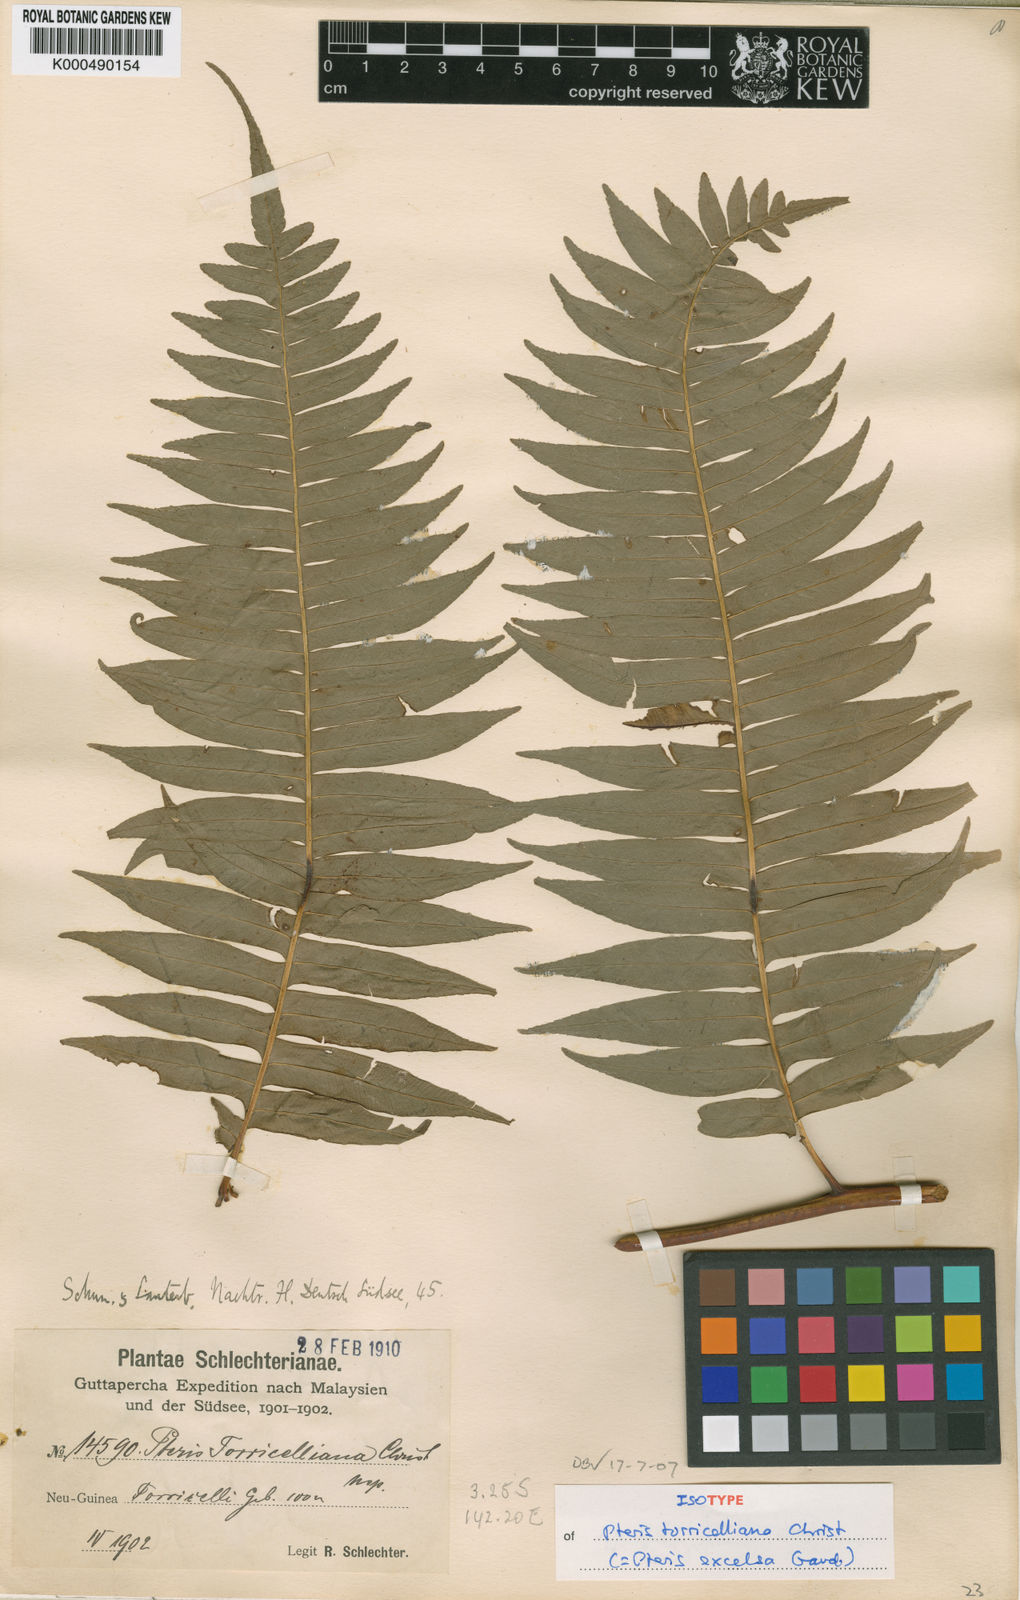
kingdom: Plantae
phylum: Tracheophyta
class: Polypodiopsida
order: Polypodiales
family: Pteridaceae
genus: Pteris
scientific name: Pteris terminalis
